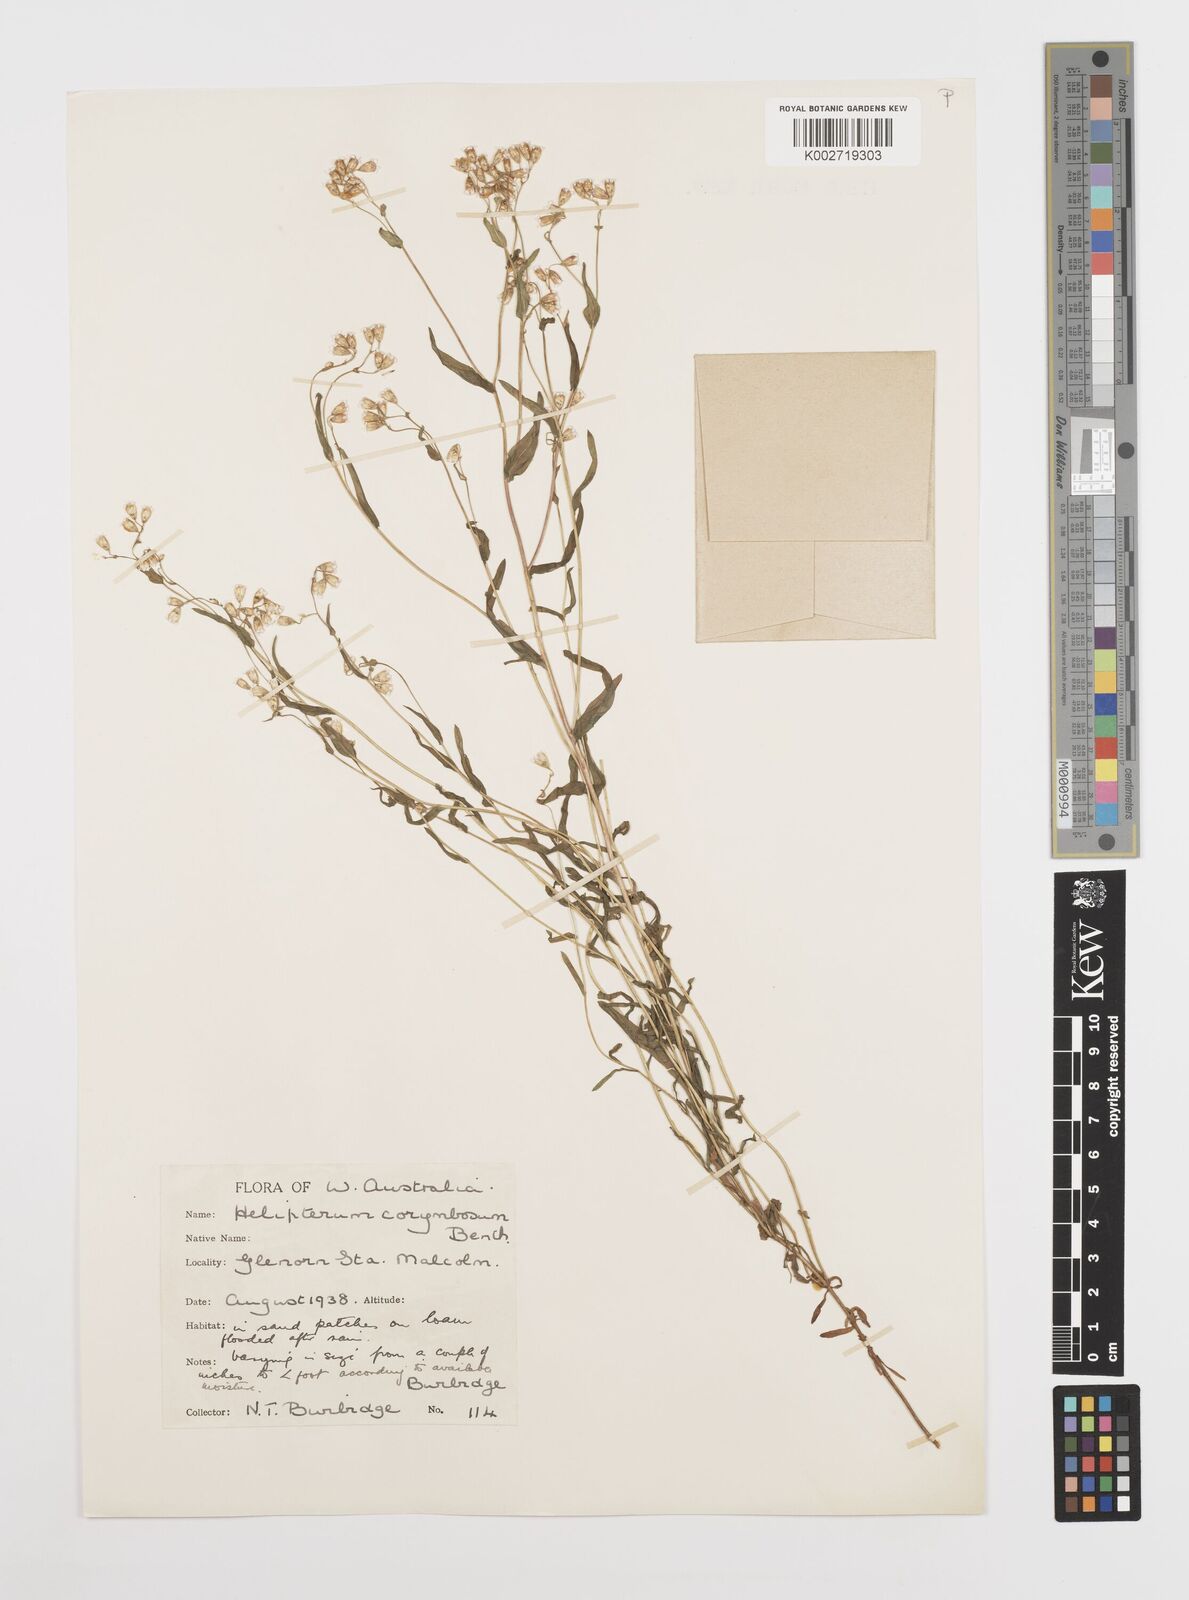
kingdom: Plantae
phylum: Tracheophyta
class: Magnoliopsida
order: Asterales
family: Asteraceae
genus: Rhodanthe
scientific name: Rhodanthe corymbosa
